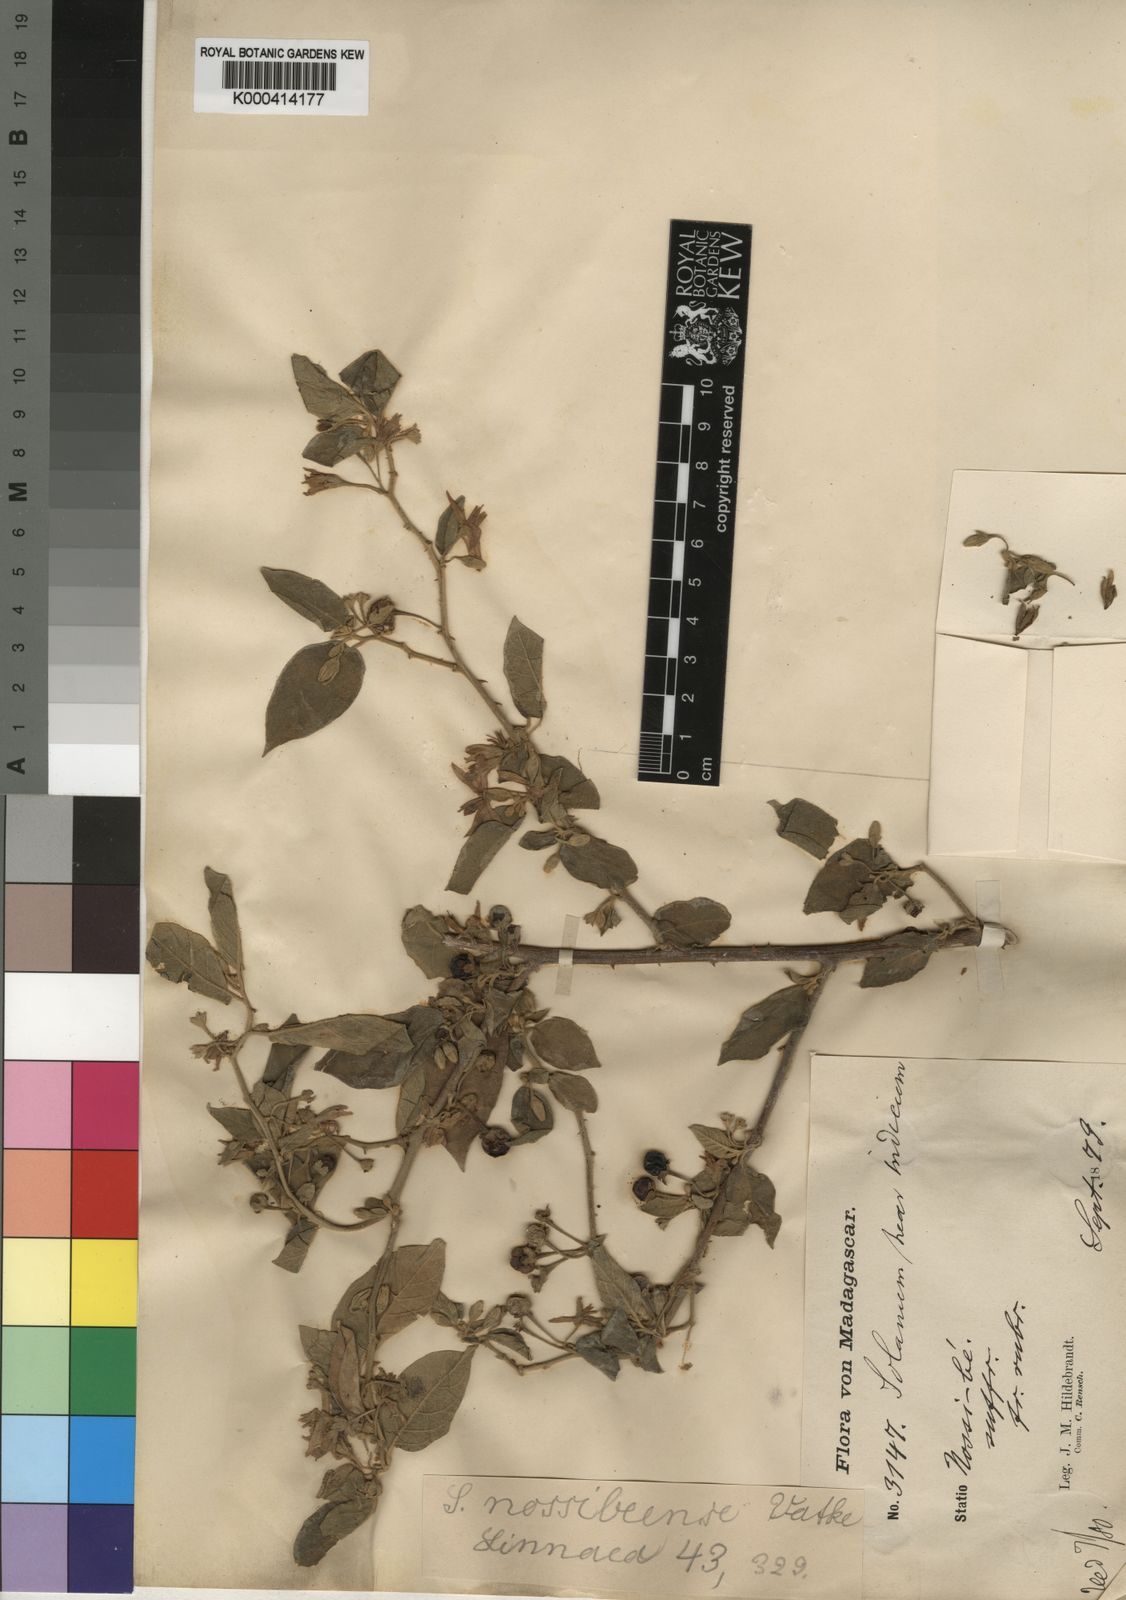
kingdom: Plantae
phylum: Tracheophyta
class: Magnoliopsida
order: Solanales
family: Solanaceae
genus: Solanum
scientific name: Solanum erythracanthum
